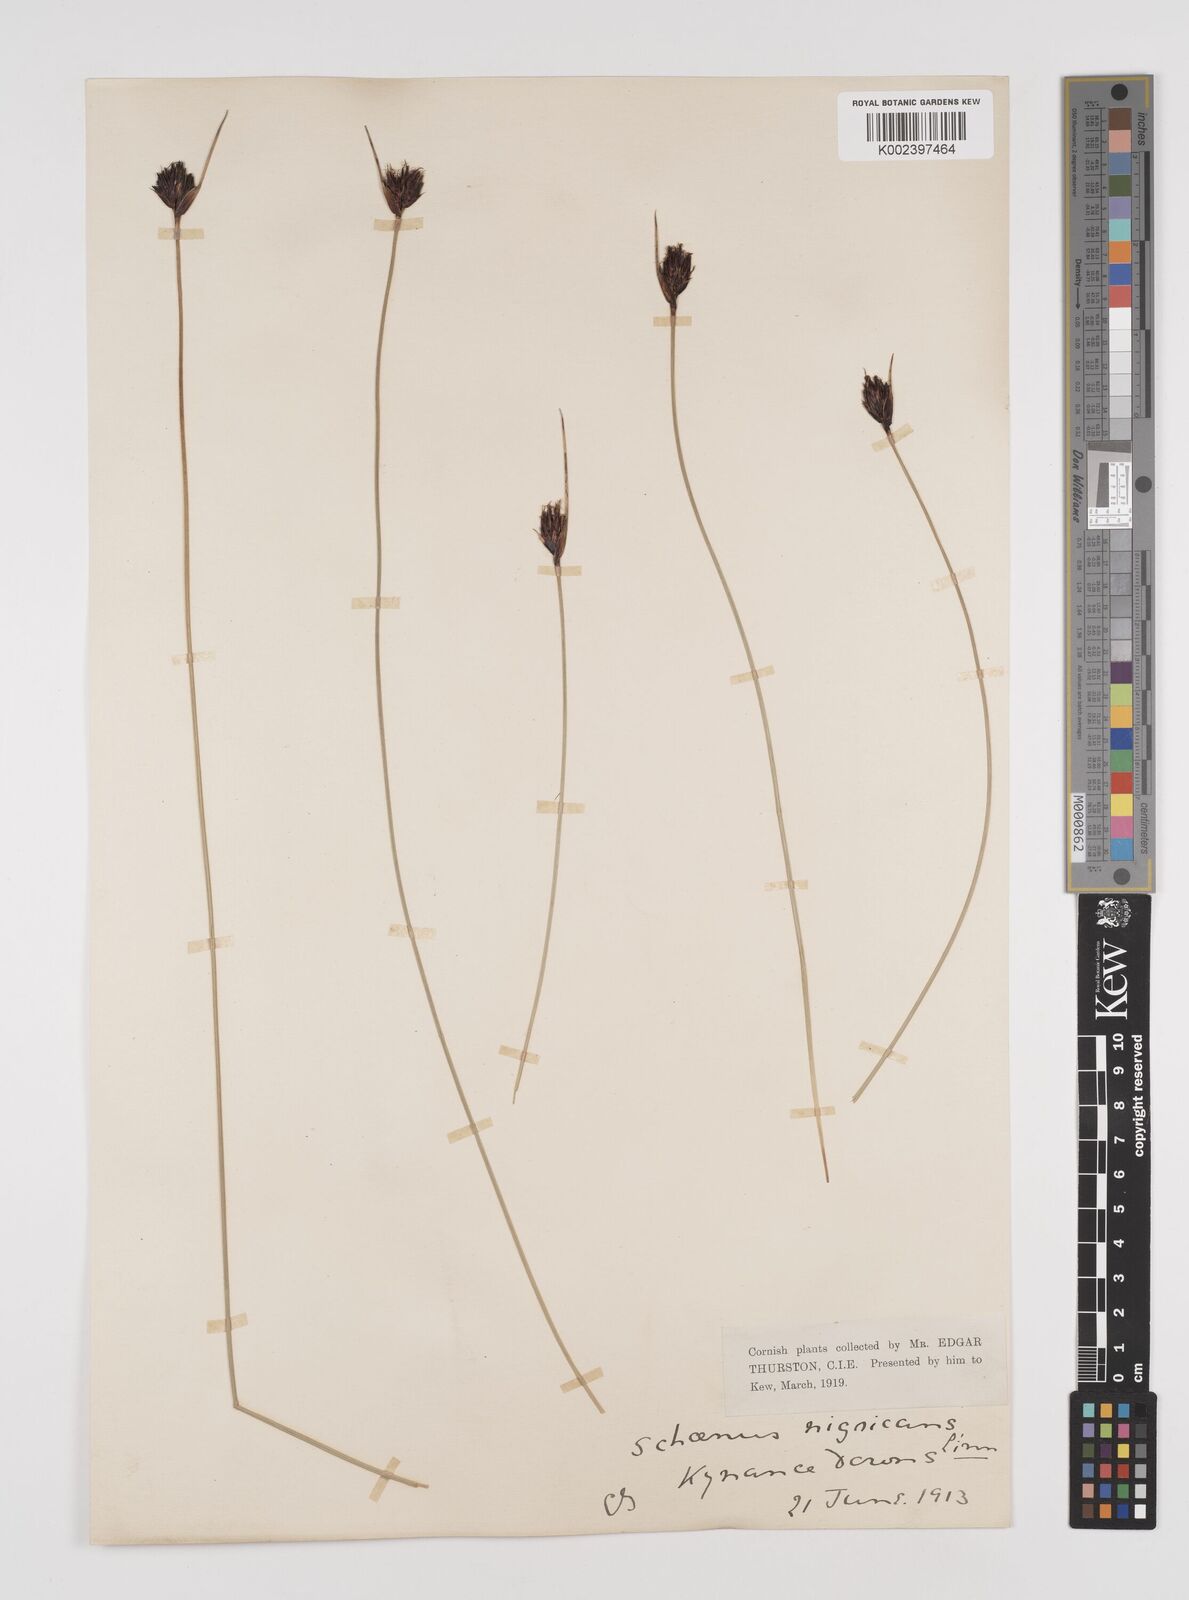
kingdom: Plantae
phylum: Tracheophyta
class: Liliopsida
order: Poales
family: Cyperaceae
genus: Schoenus
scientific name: Schoenus nigricans
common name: Black bog-rush
